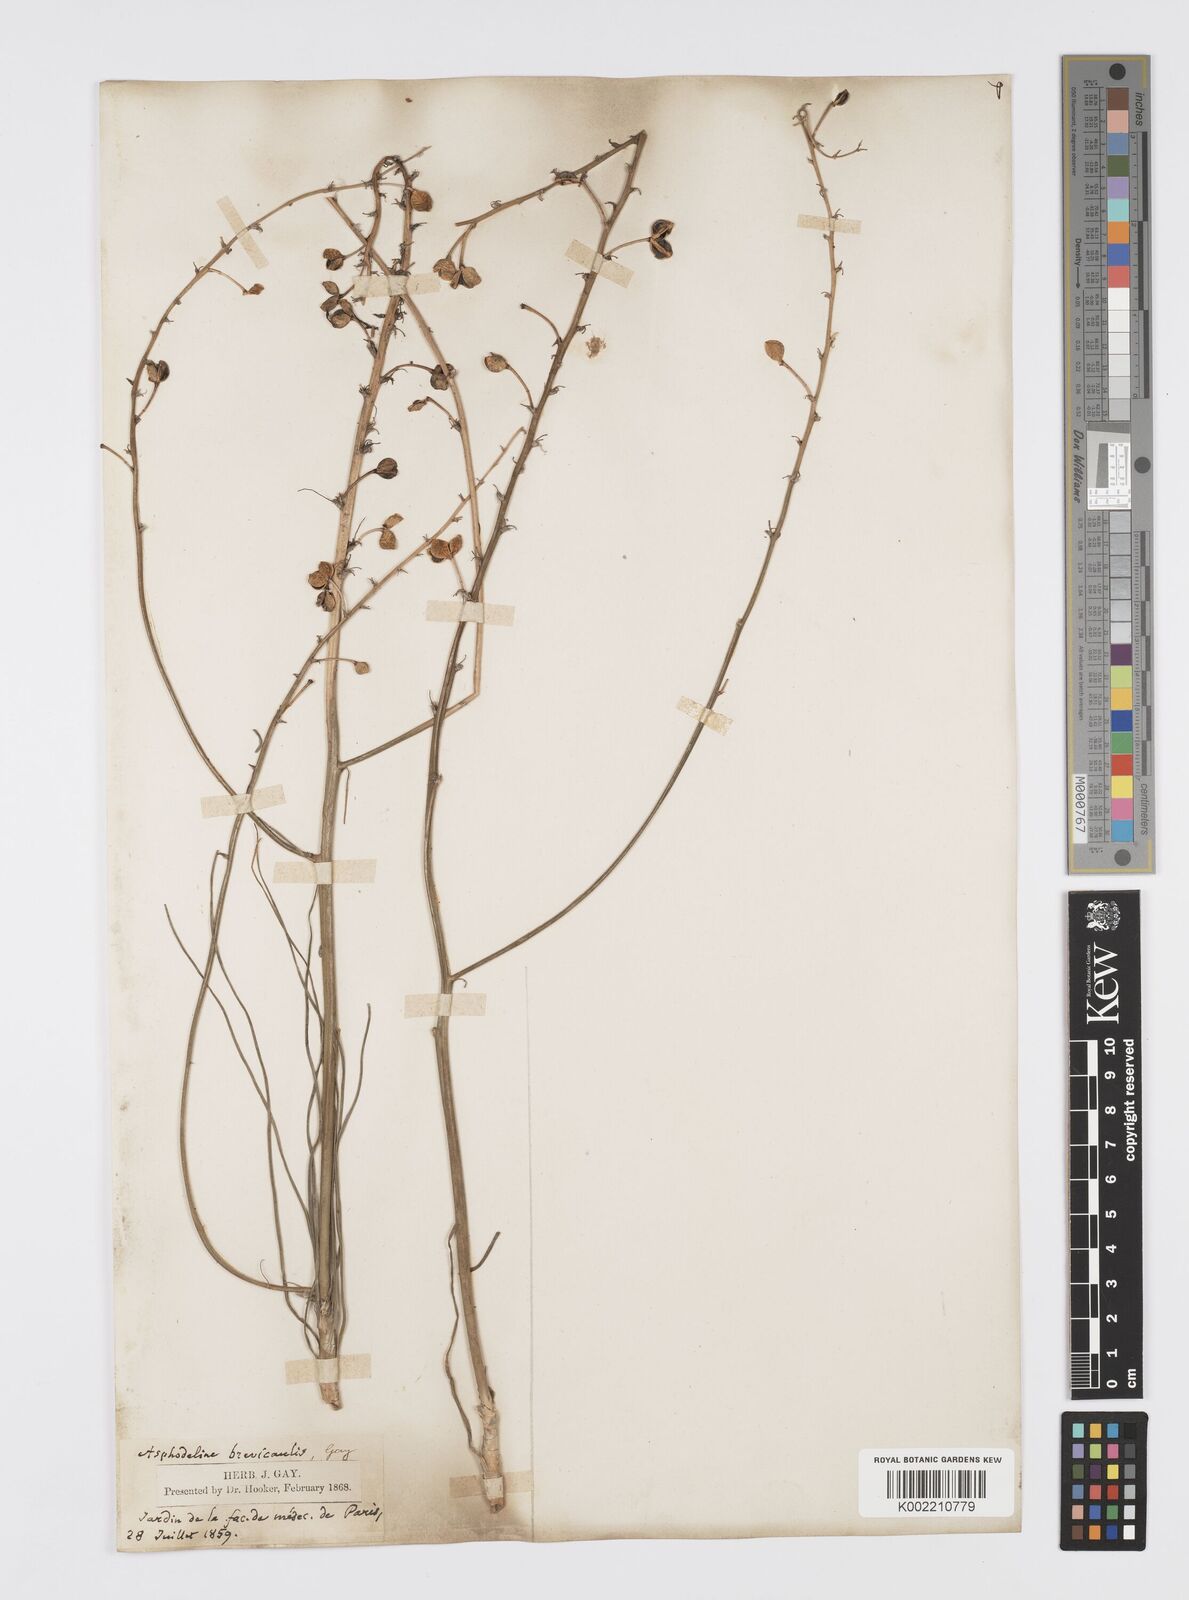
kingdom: Plantae
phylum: Tracheophyta
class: Liliopsida
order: Asparagales
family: Asphodelaceae
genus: Asphodeline
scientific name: Asphodeline brevicaulis
